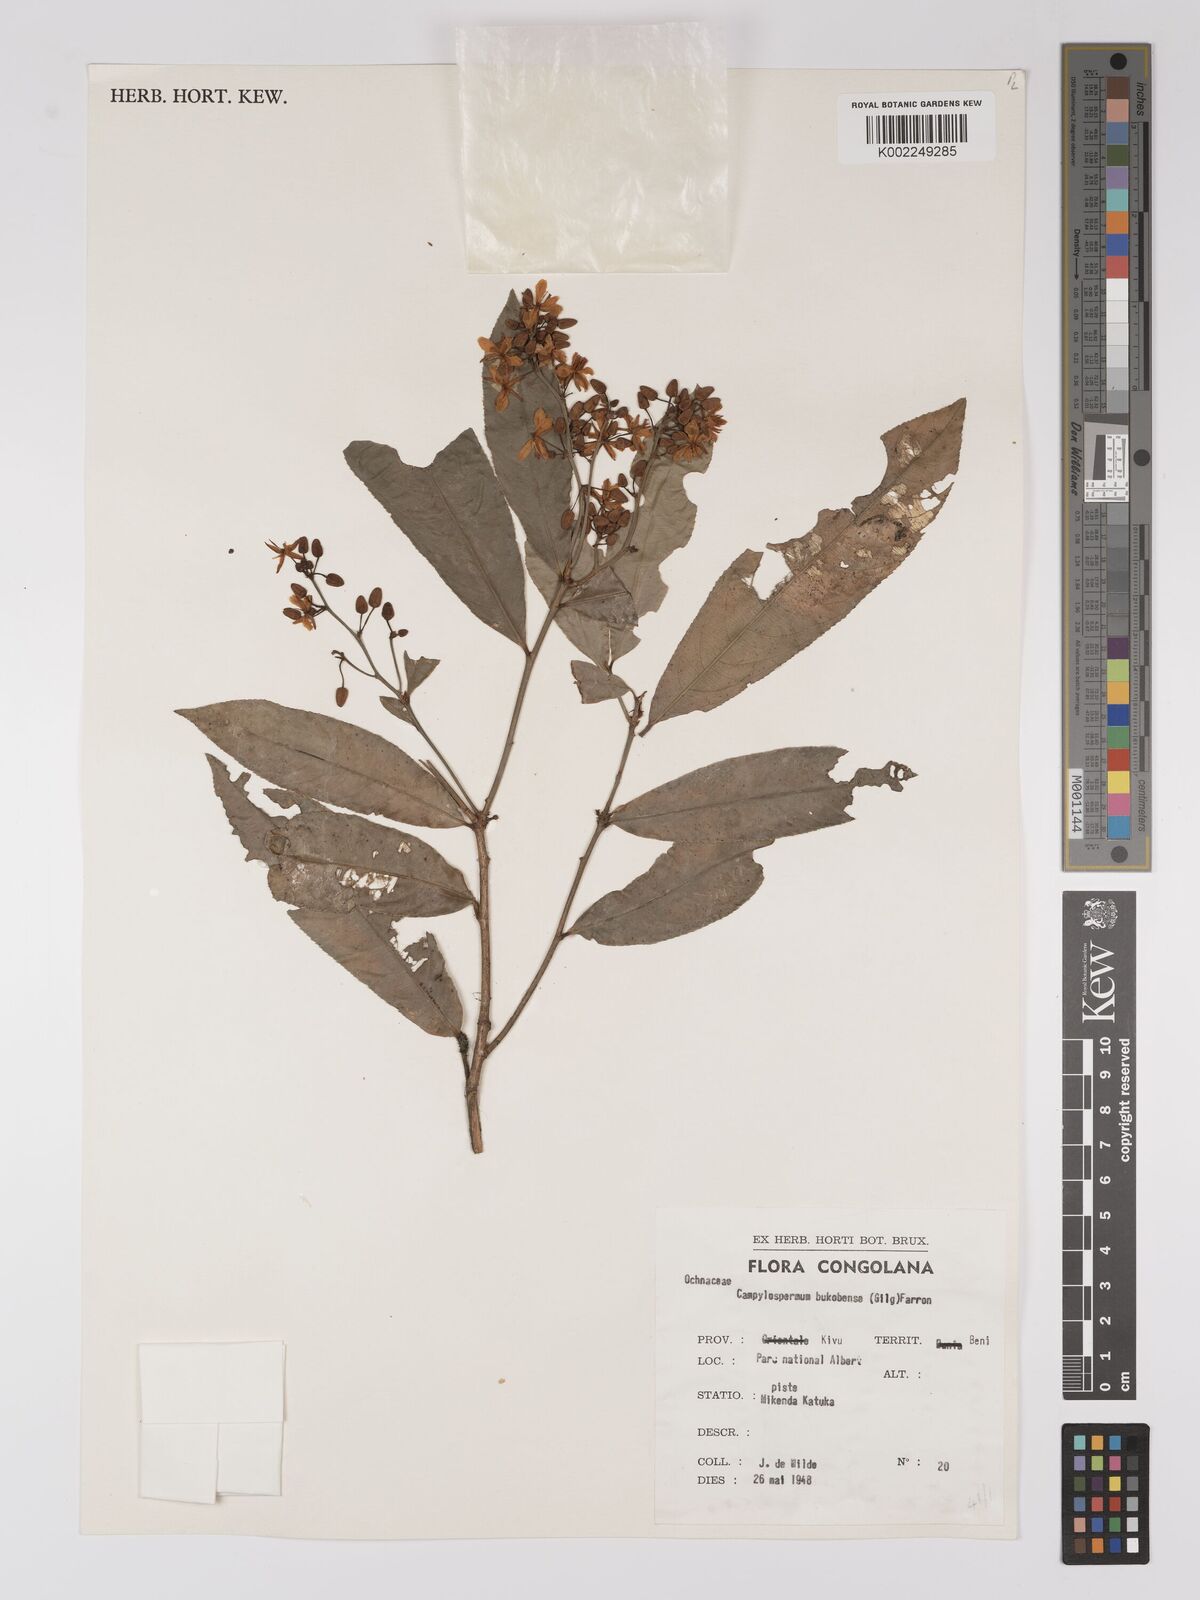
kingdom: Plantae
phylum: Tracheophyta
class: Magnoliopsida
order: Malpighiales
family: Ochnaceae
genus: Campylospermum
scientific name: Campylospermum likimiense
